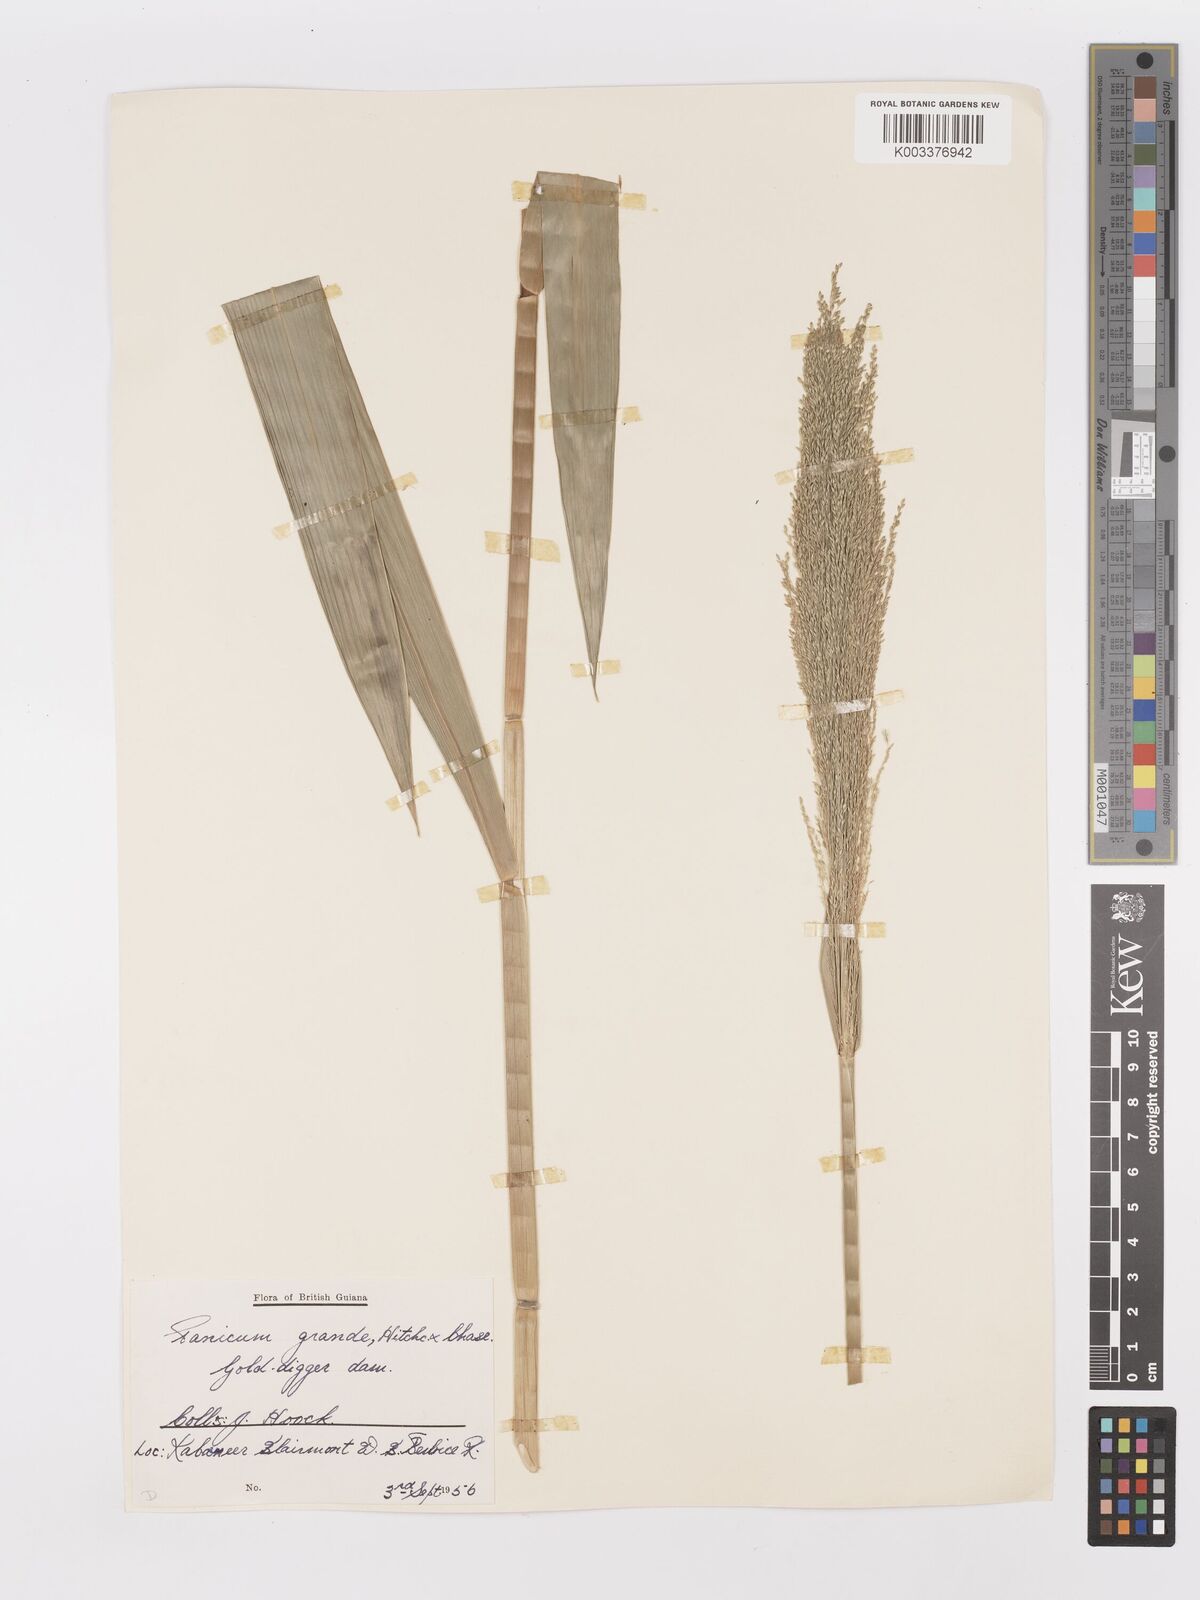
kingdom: Plantae
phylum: Tracheophyta
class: Liliopsida
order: Poales
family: Poaceae
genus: Panicum
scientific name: Panicum subalbidum
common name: Elbow buffalo grass
